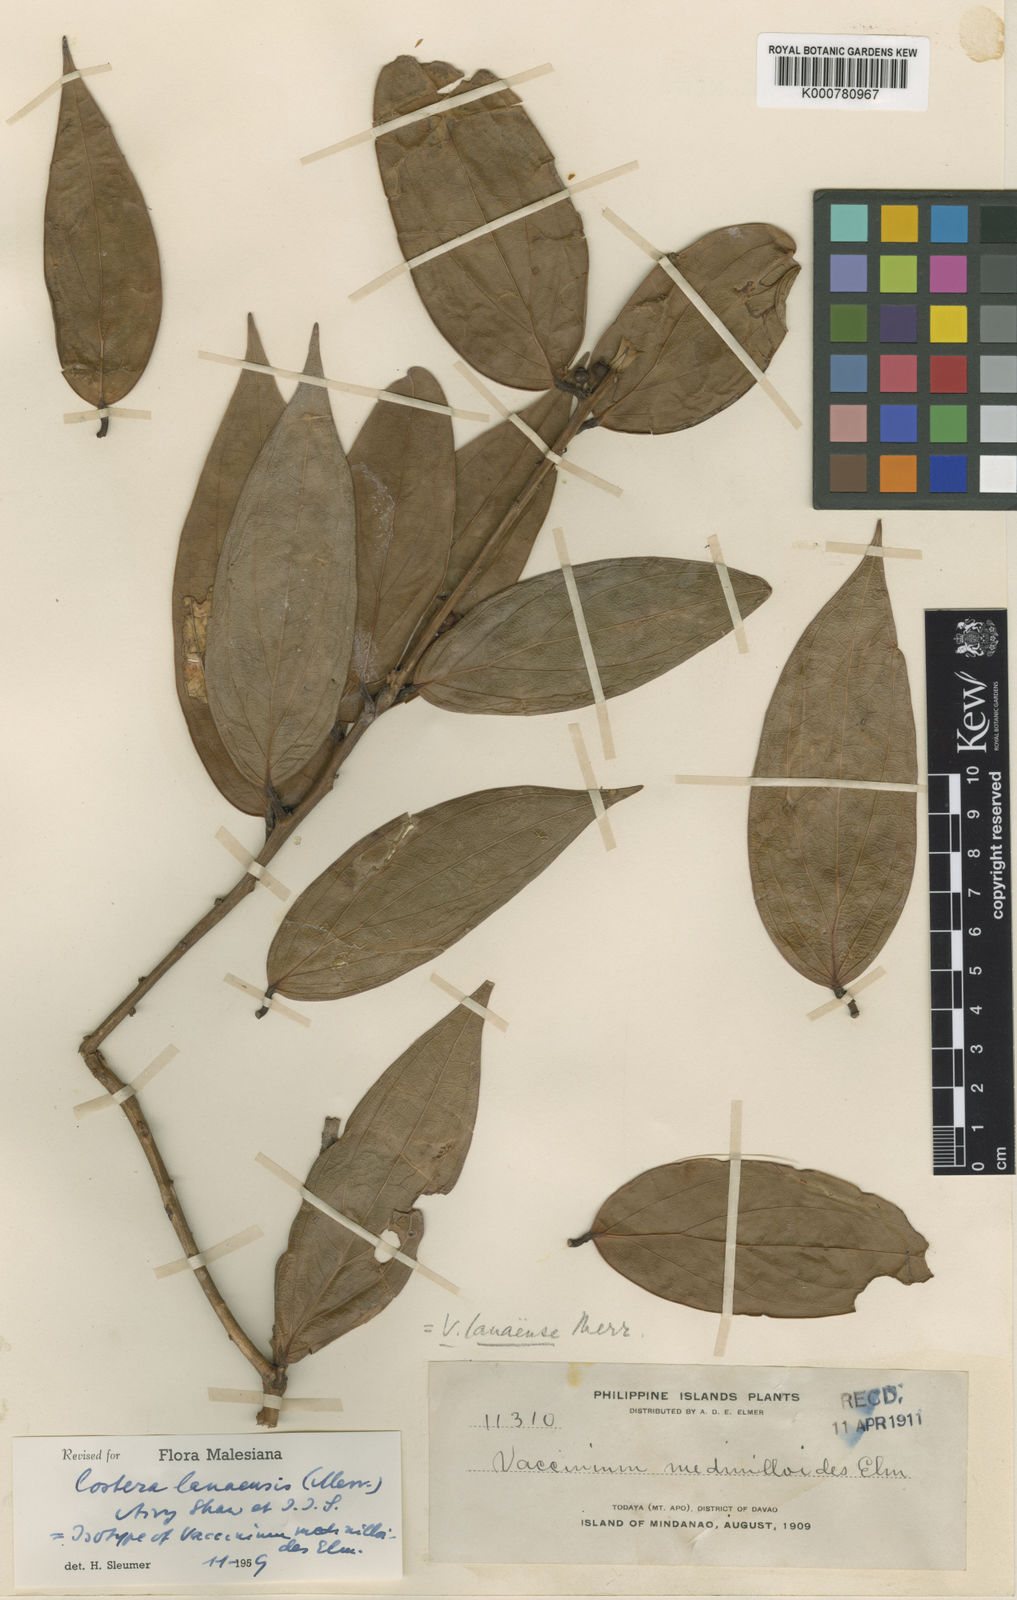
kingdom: Plantae
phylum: Tracheophyta
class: Magnoliopsida
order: Ericales
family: Ericaceae
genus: Costera
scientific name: Costera lanaensis
